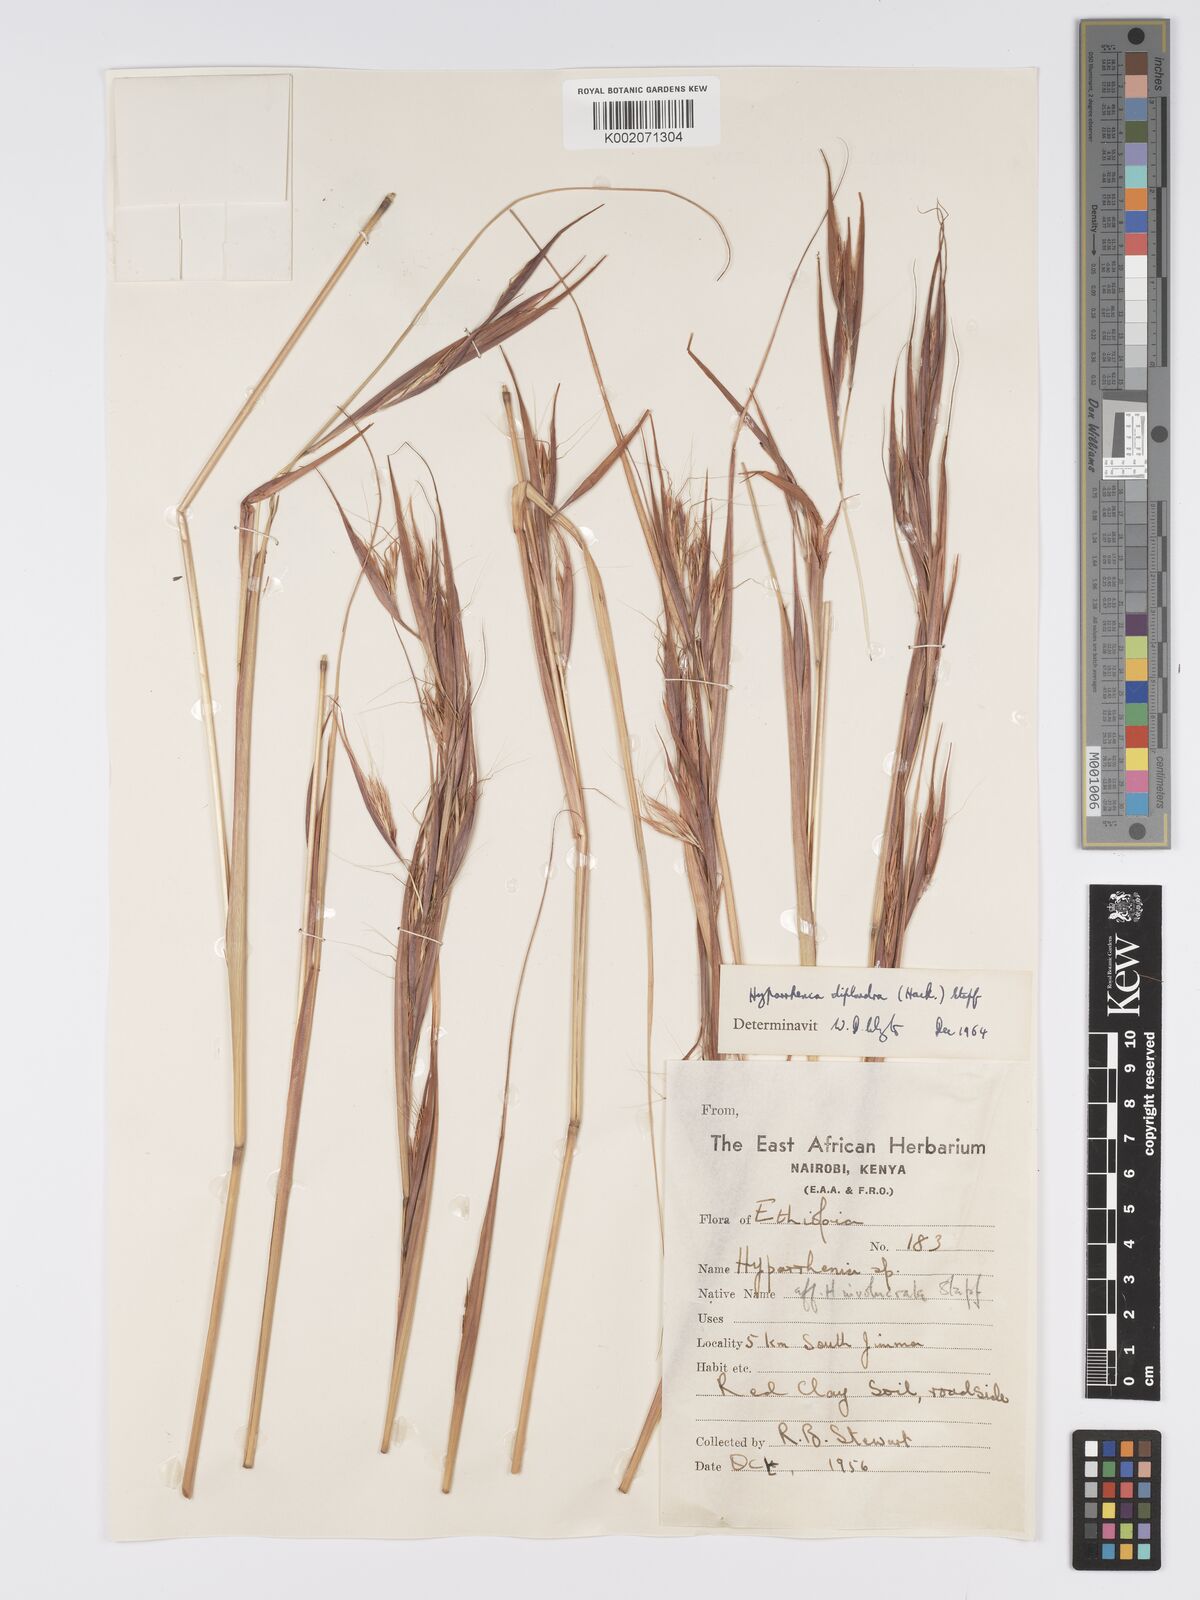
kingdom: Plantae
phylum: Tracheophyta
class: Liliopsida
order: Poales
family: Poaceae
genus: Hyparrhenia
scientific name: Hyparrhenia diplandra
